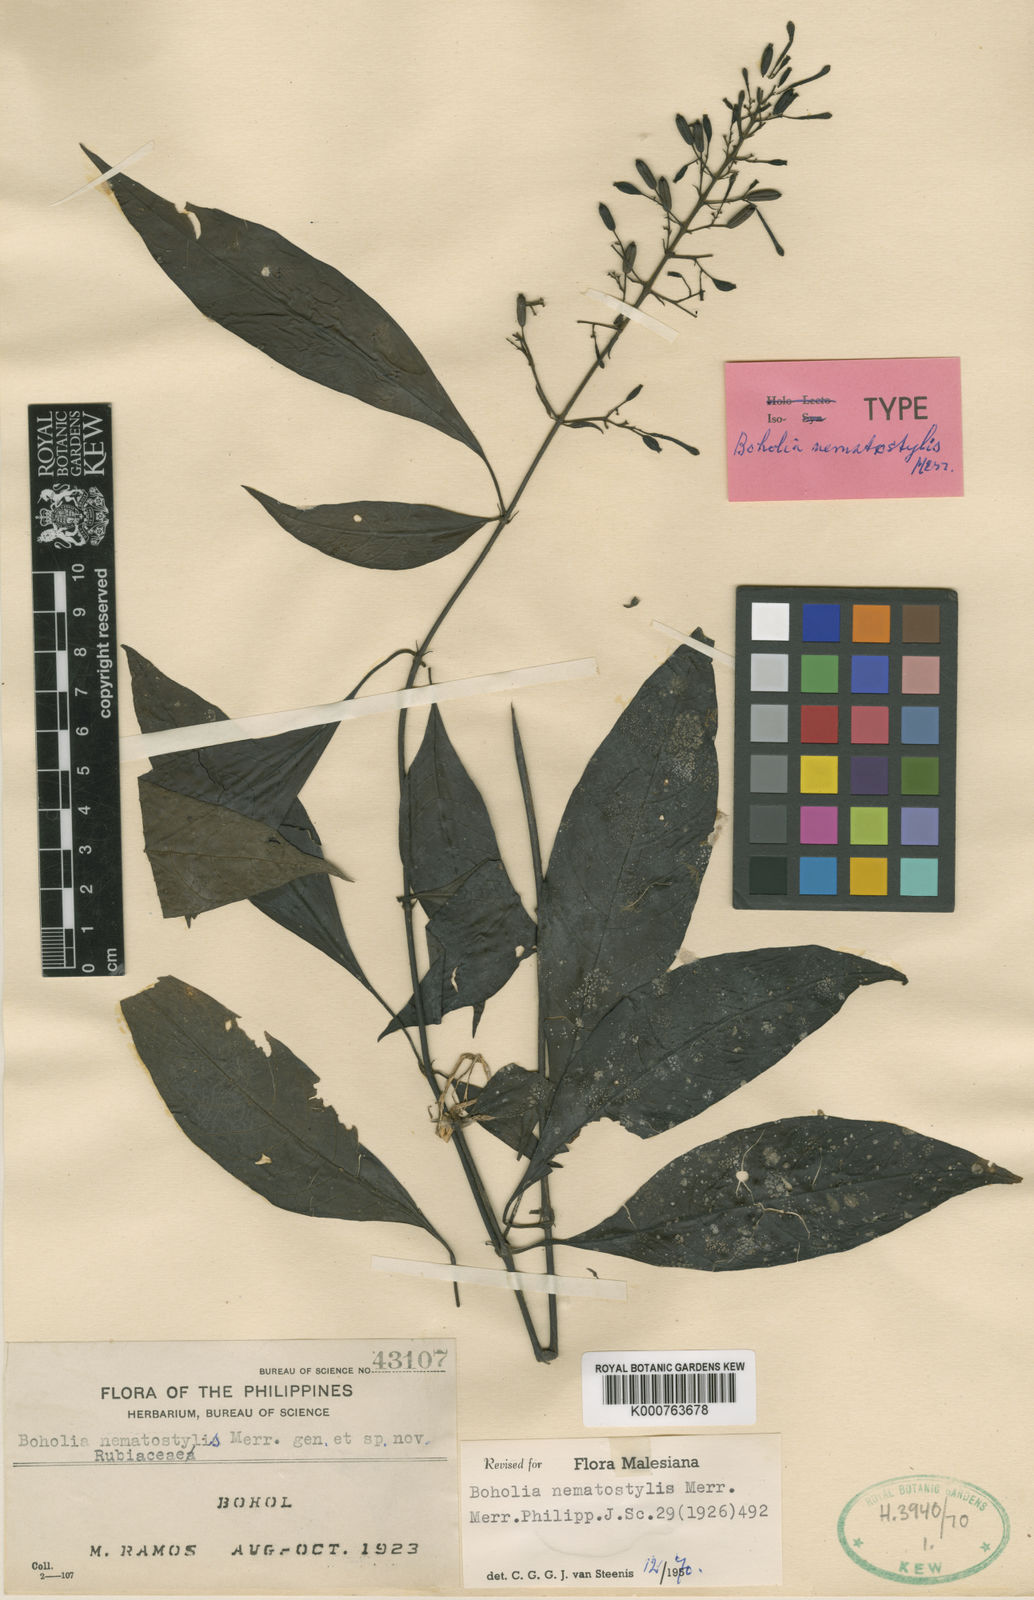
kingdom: Plantae
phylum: Tracheophyta
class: Magnoliopsida
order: Gentianales
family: Rubiaceae
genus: Boholia
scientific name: Boholia nematostylis
